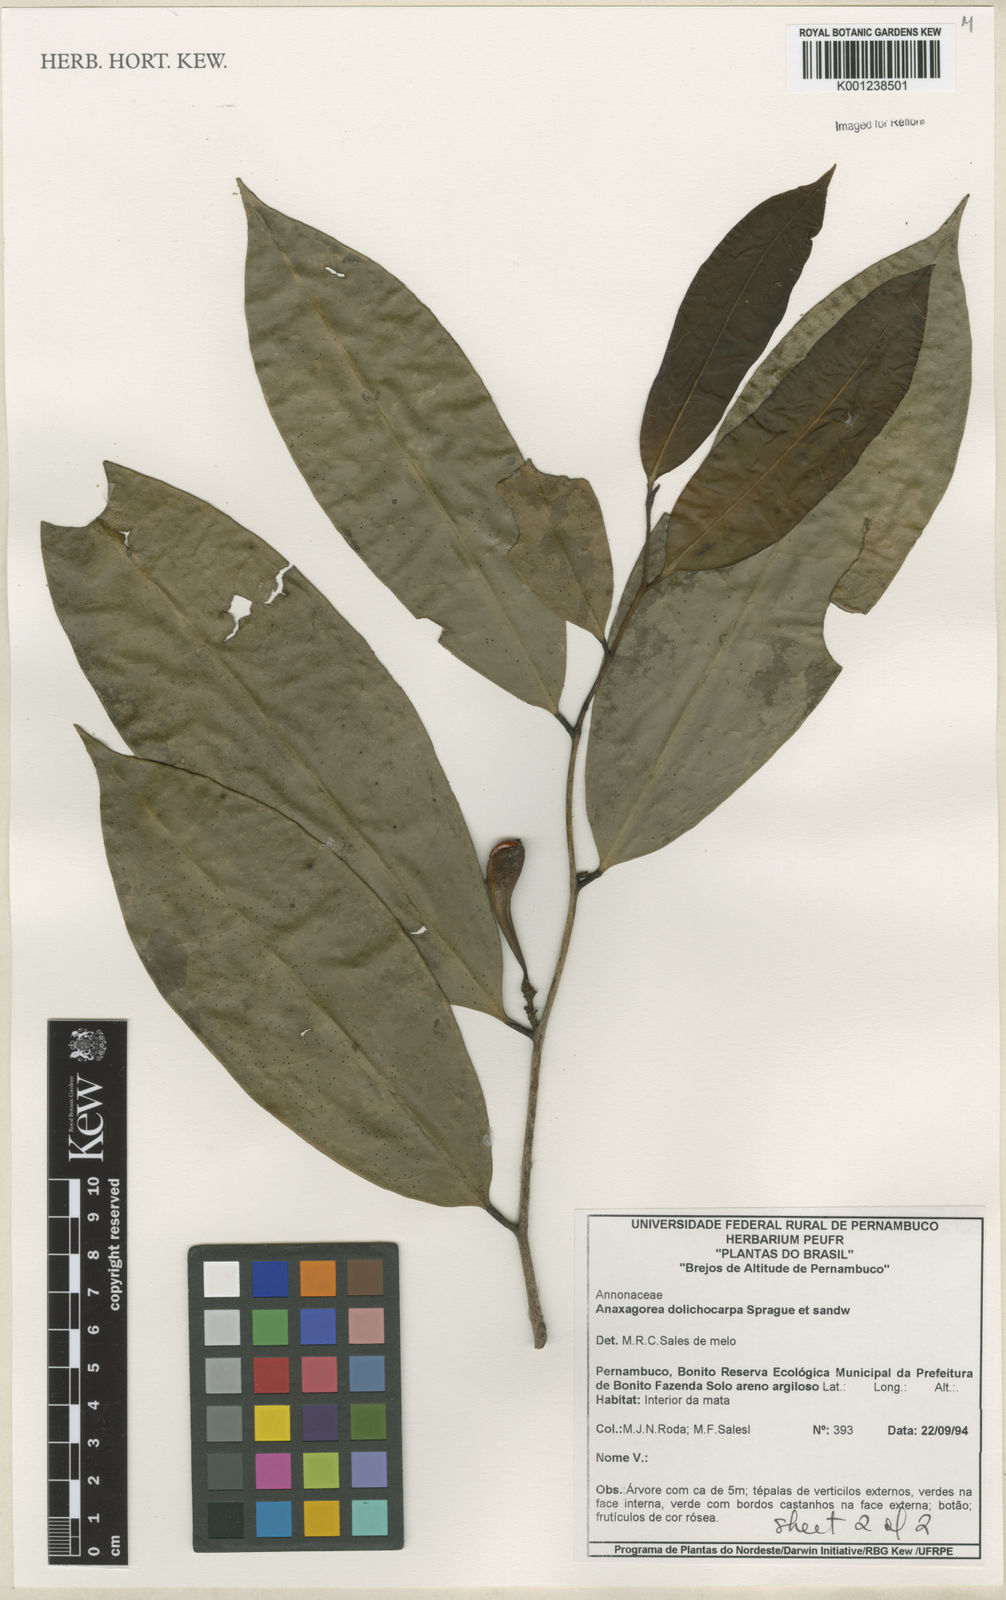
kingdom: Plantae
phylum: Tracheophyta
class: Magnoliopsida
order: Magnoliales
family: Annonaceae
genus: Anaxagorea
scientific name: Anaxagorea dolichocarpa
